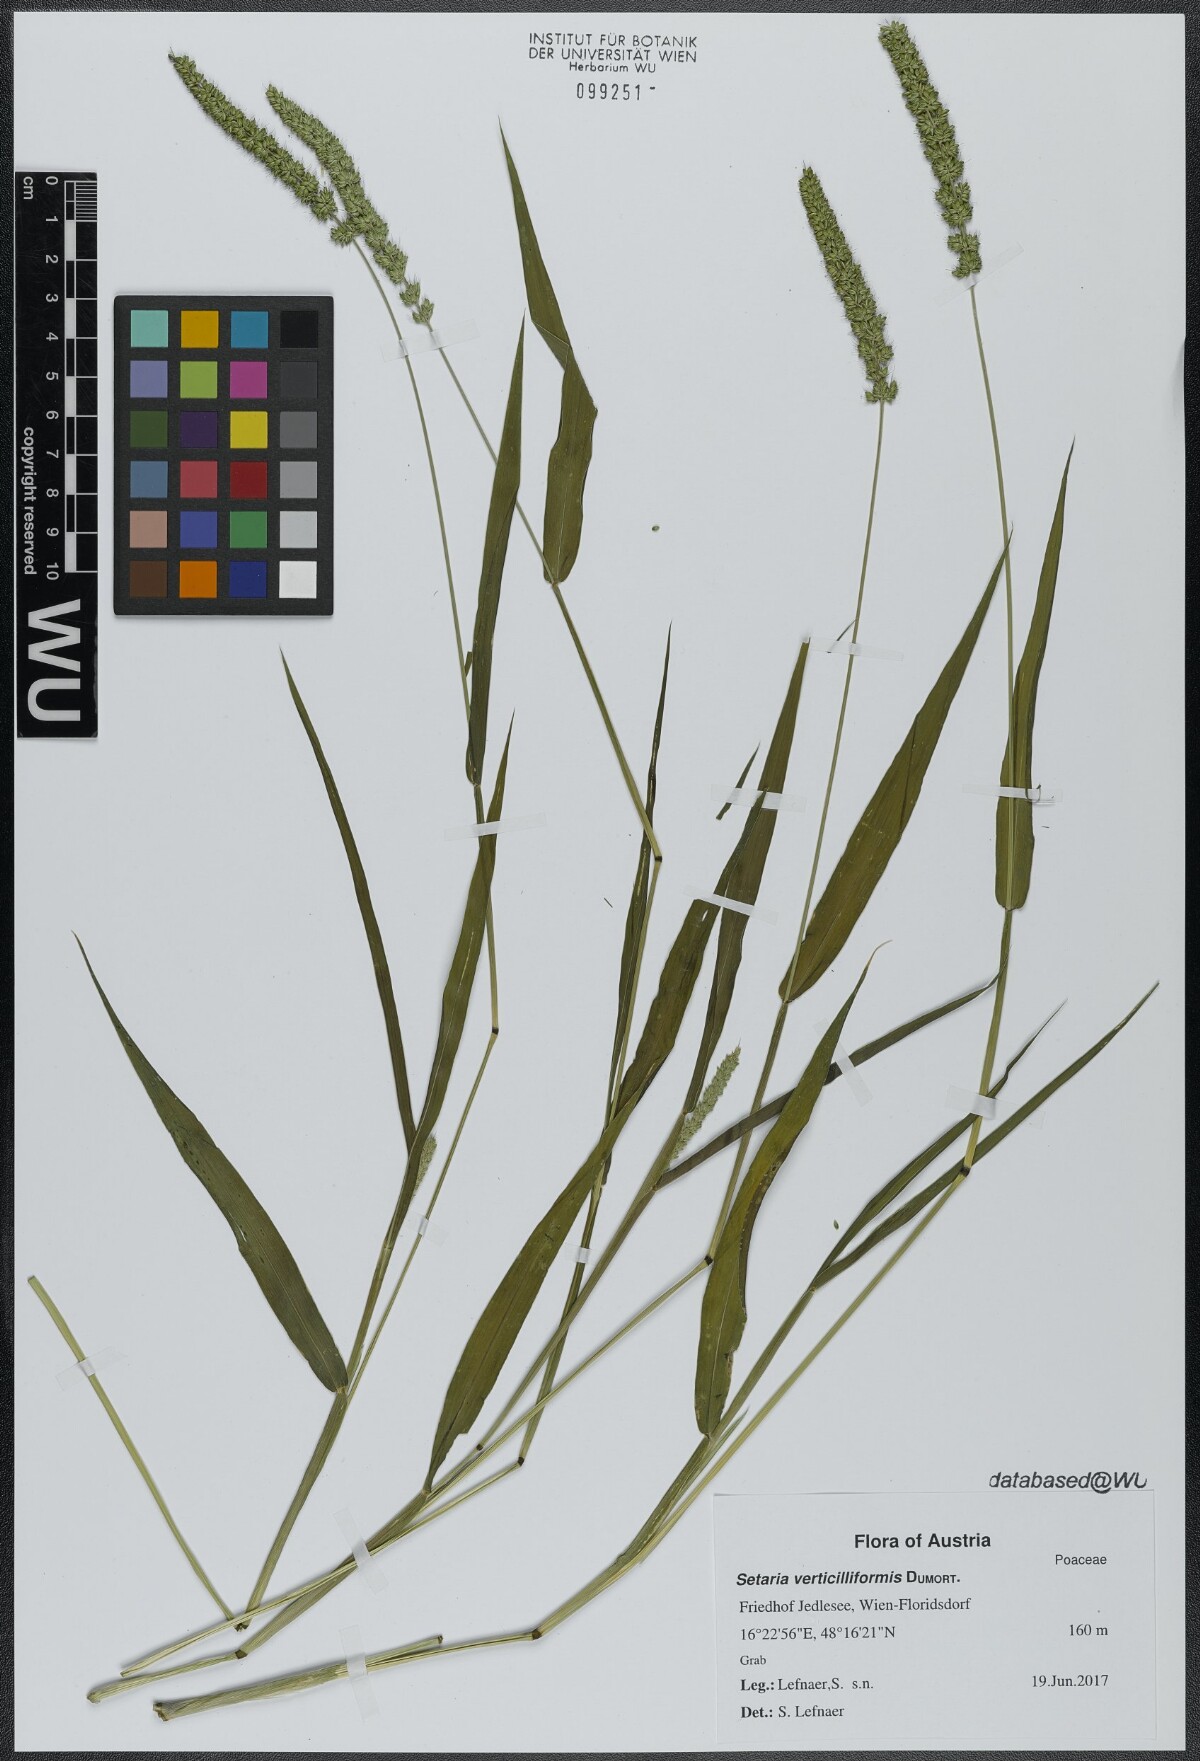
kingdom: Plantae
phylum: Tracheophyta
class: Liliopsida
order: Poales
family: Poaceae
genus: Setaria
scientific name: Setaria verticillata
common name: Hooked bristlegrass
